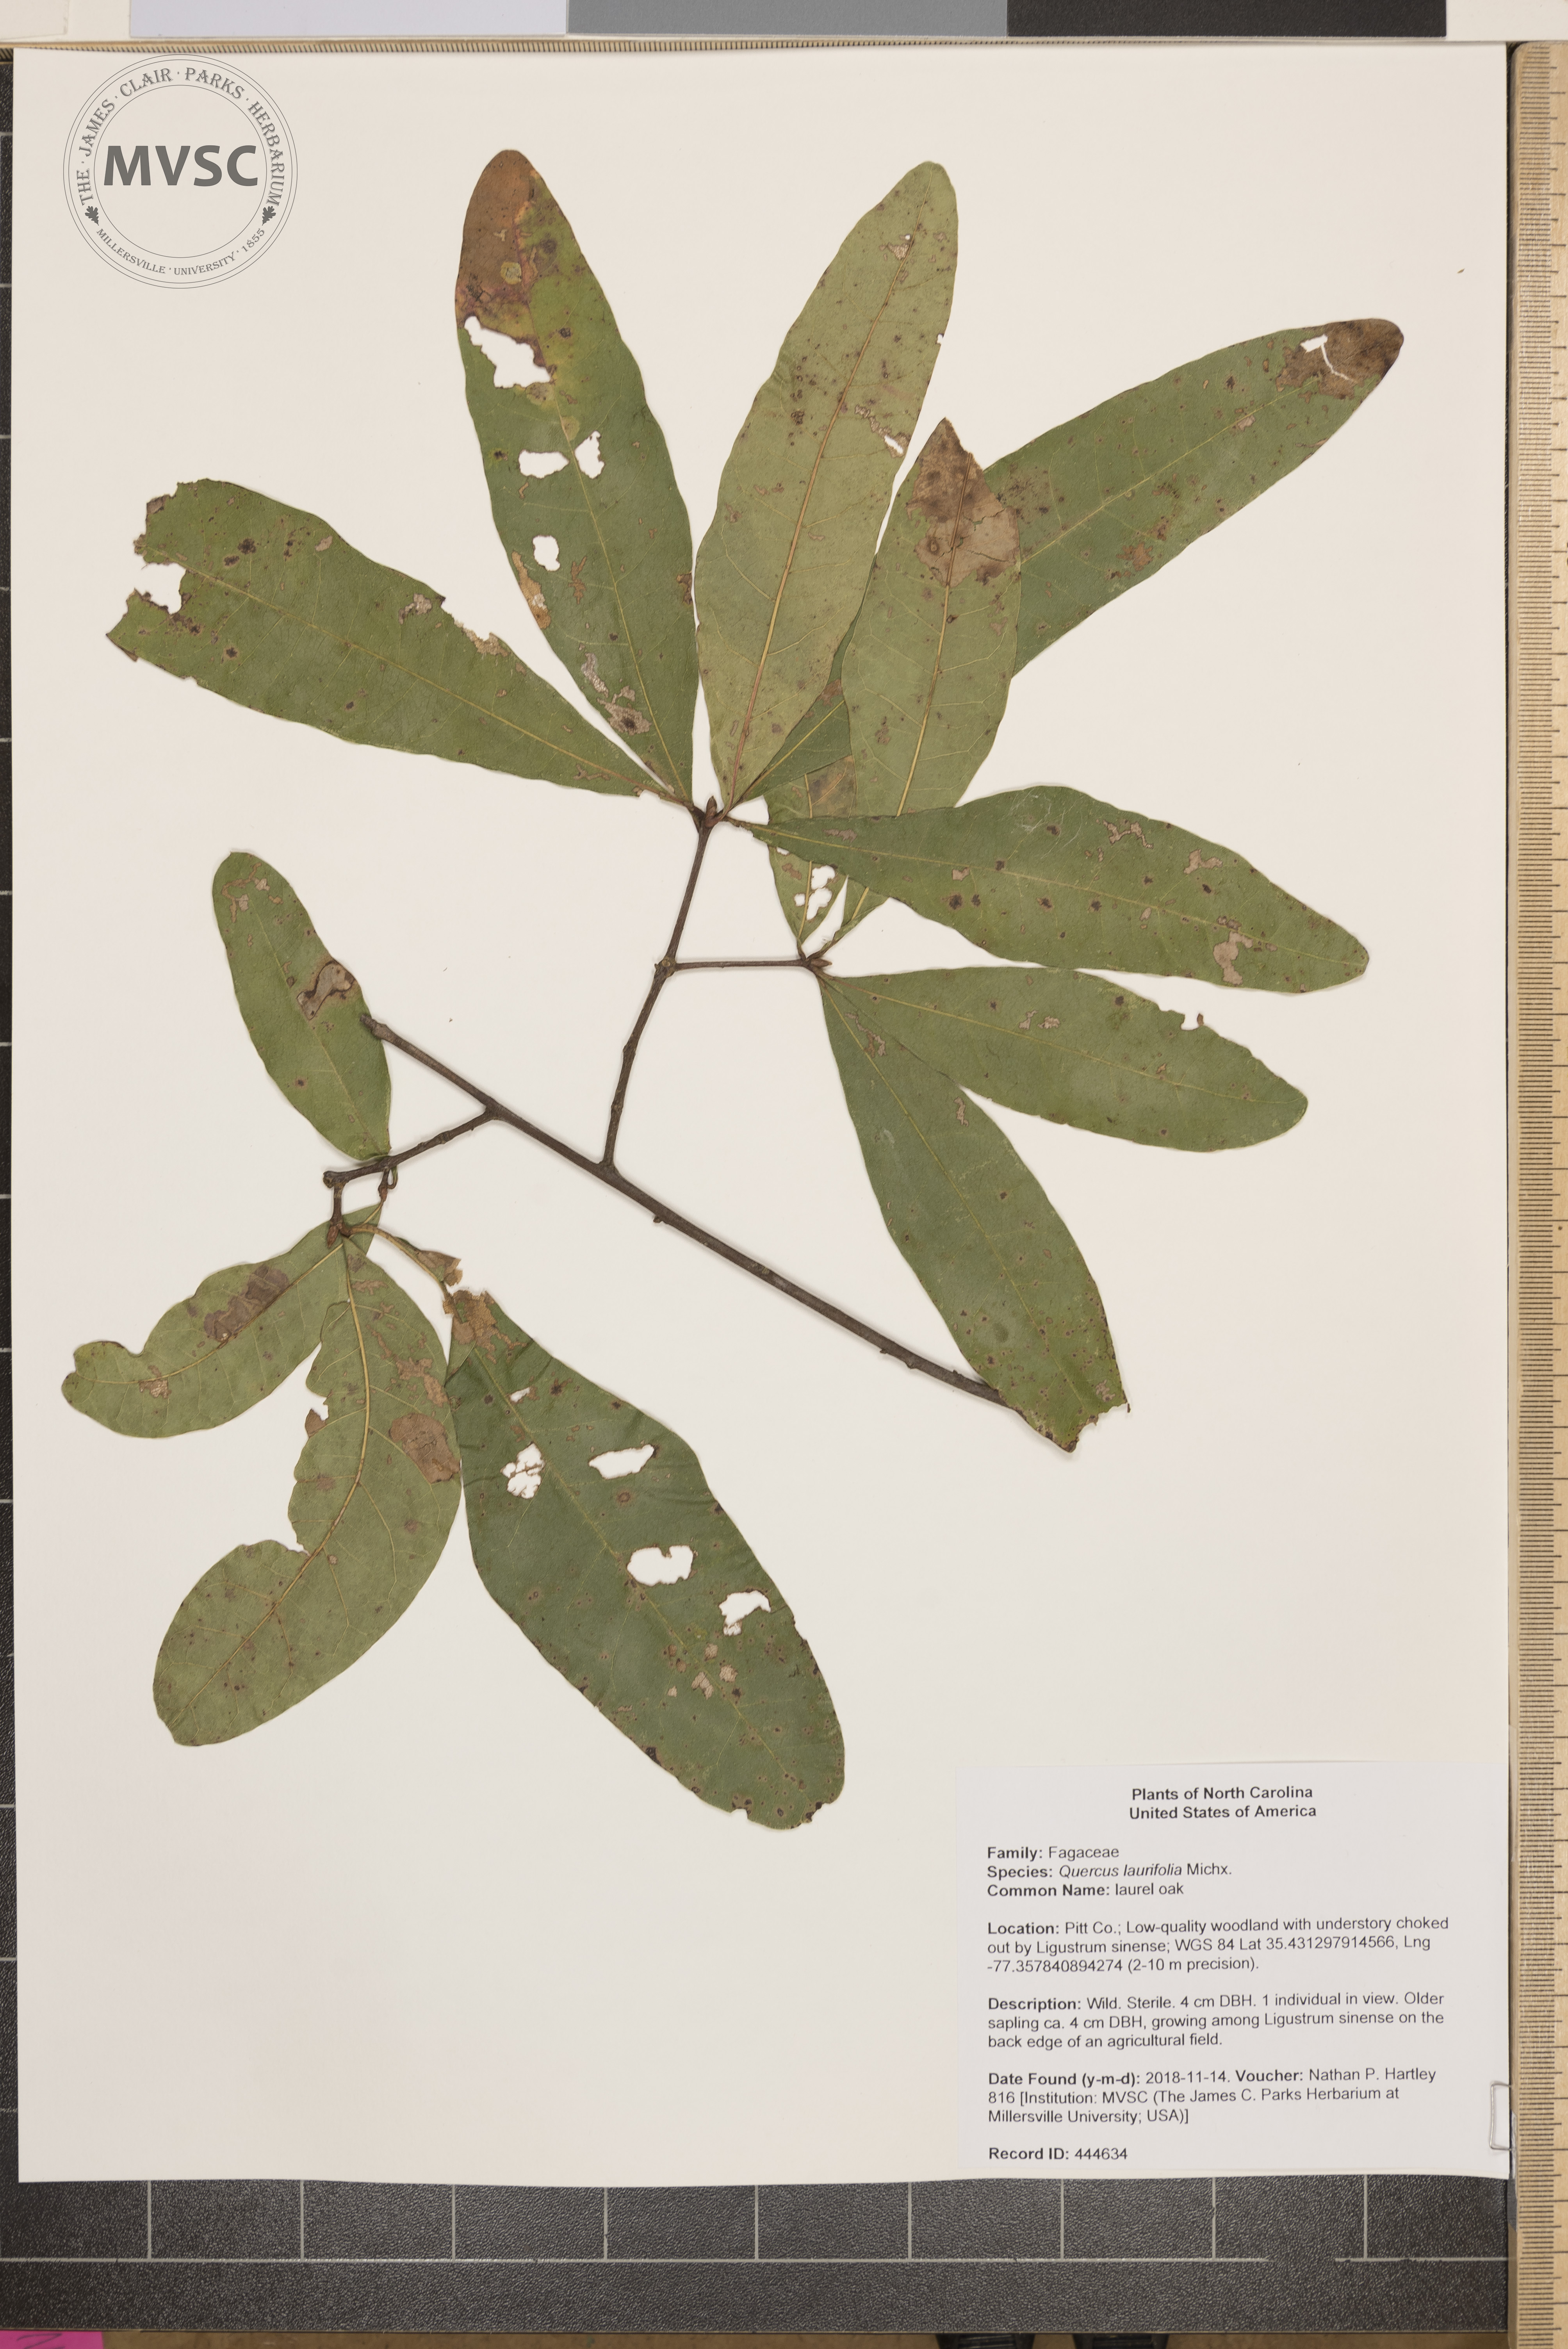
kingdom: Plantae
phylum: Tracheophyta
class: Magnoliopsida
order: Fagales
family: Fagaceae
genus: Quercus
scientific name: Quercus laurifolia
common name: laurel oak
